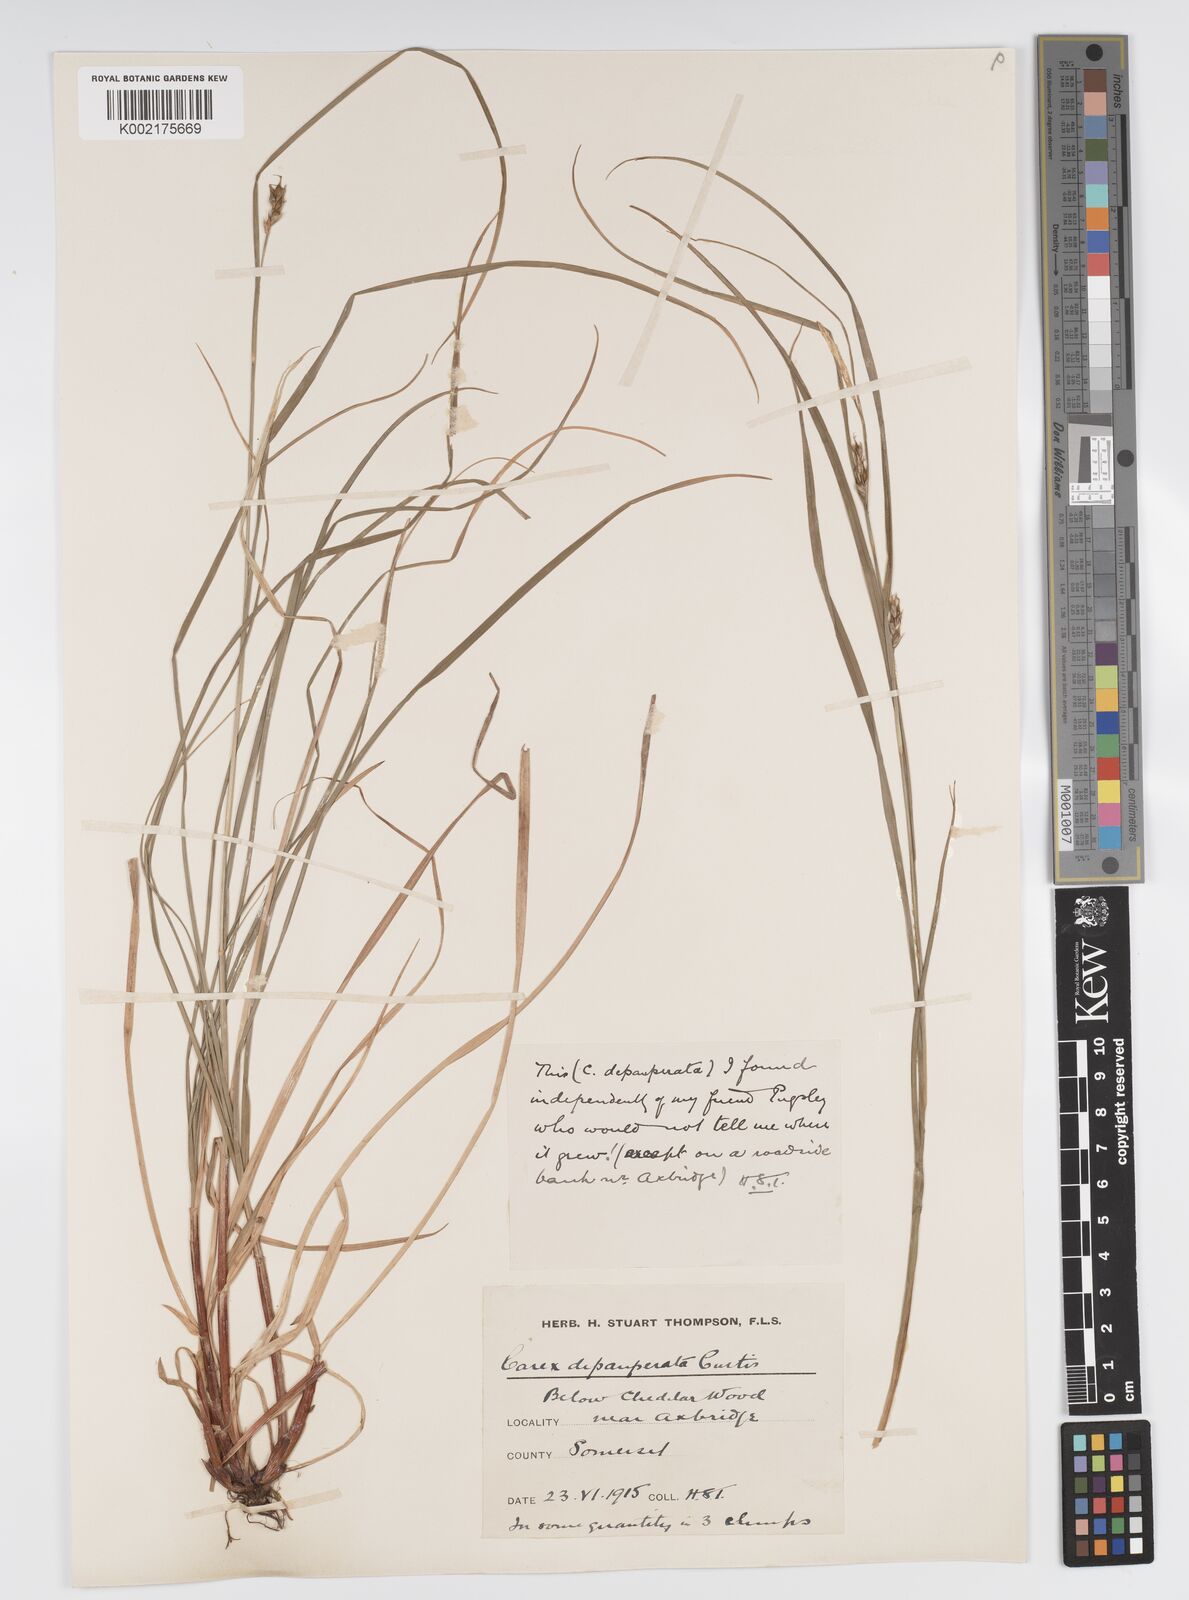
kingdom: Plantae
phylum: Tracheophyta
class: Liliopsida
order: Poales
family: Cyperaceae
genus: Carex
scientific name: Carex depauperata
